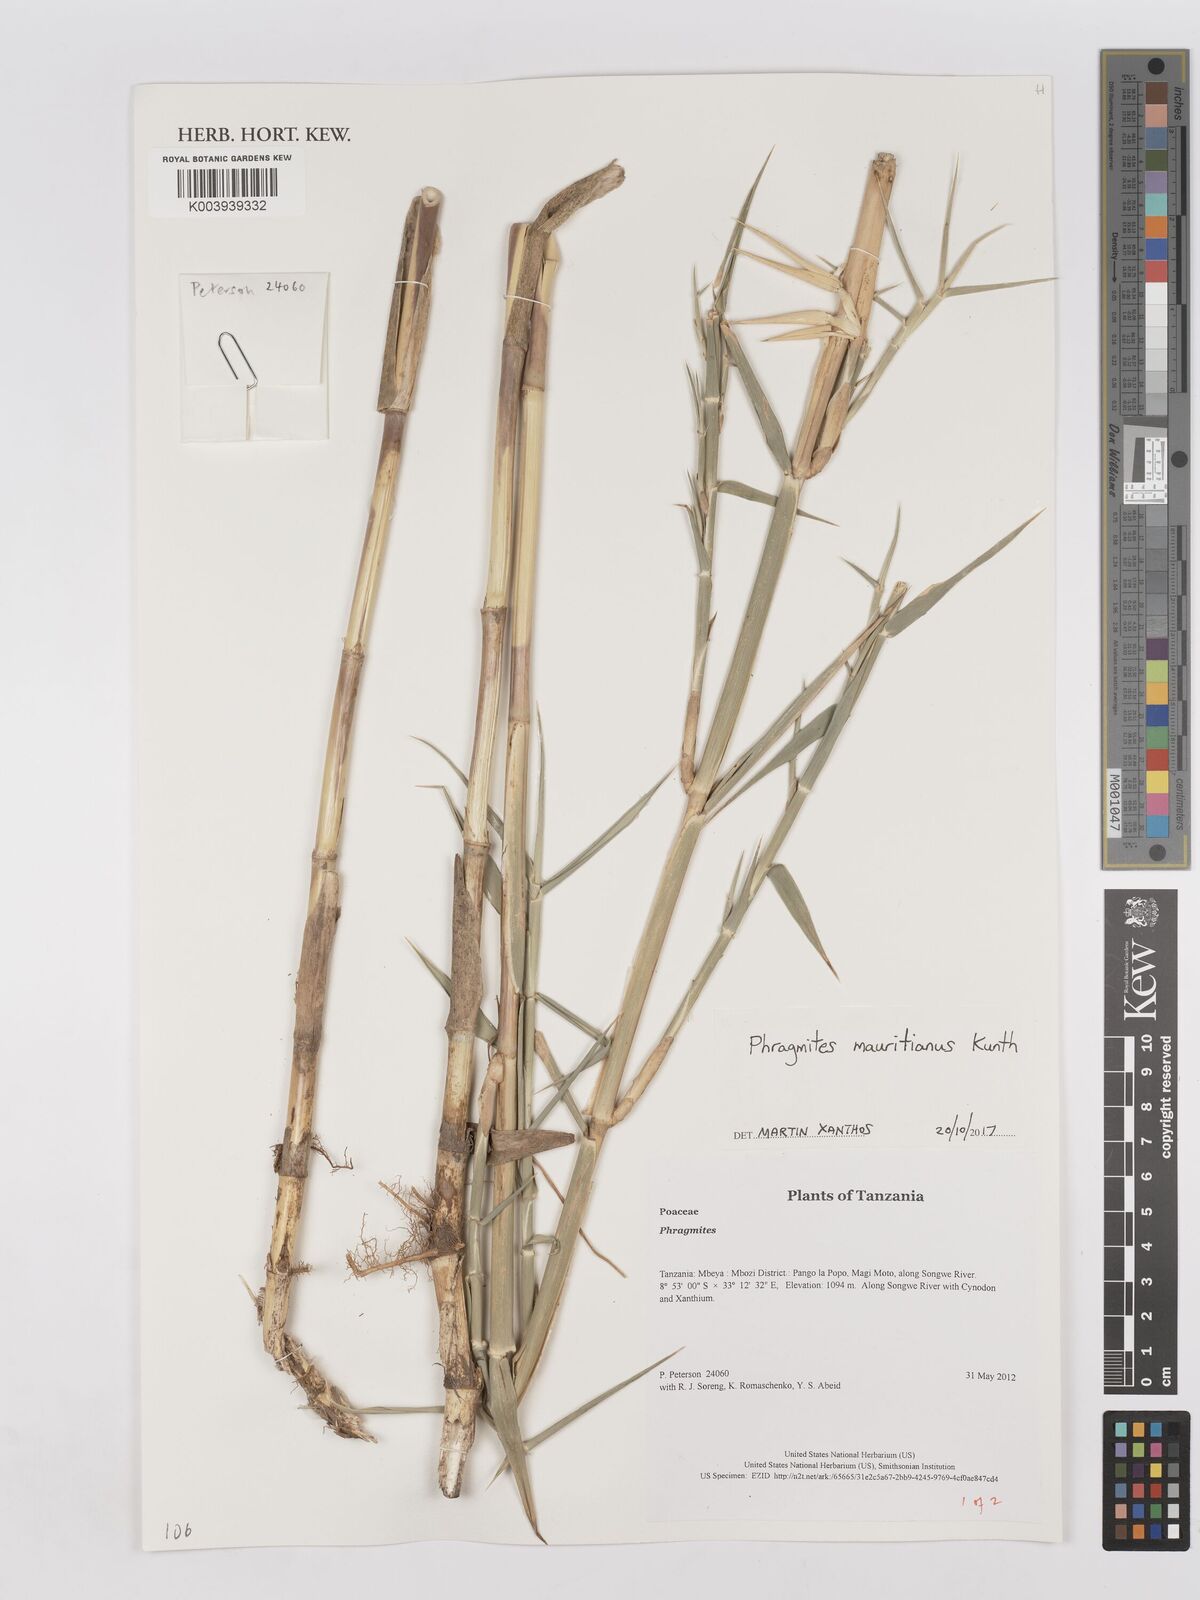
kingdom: Plantae
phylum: Tracheophyta
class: Liliopsida
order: Poales
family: Poaceae
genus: Phragmites
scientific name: Phragmites mauritianus
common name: Reed grass
